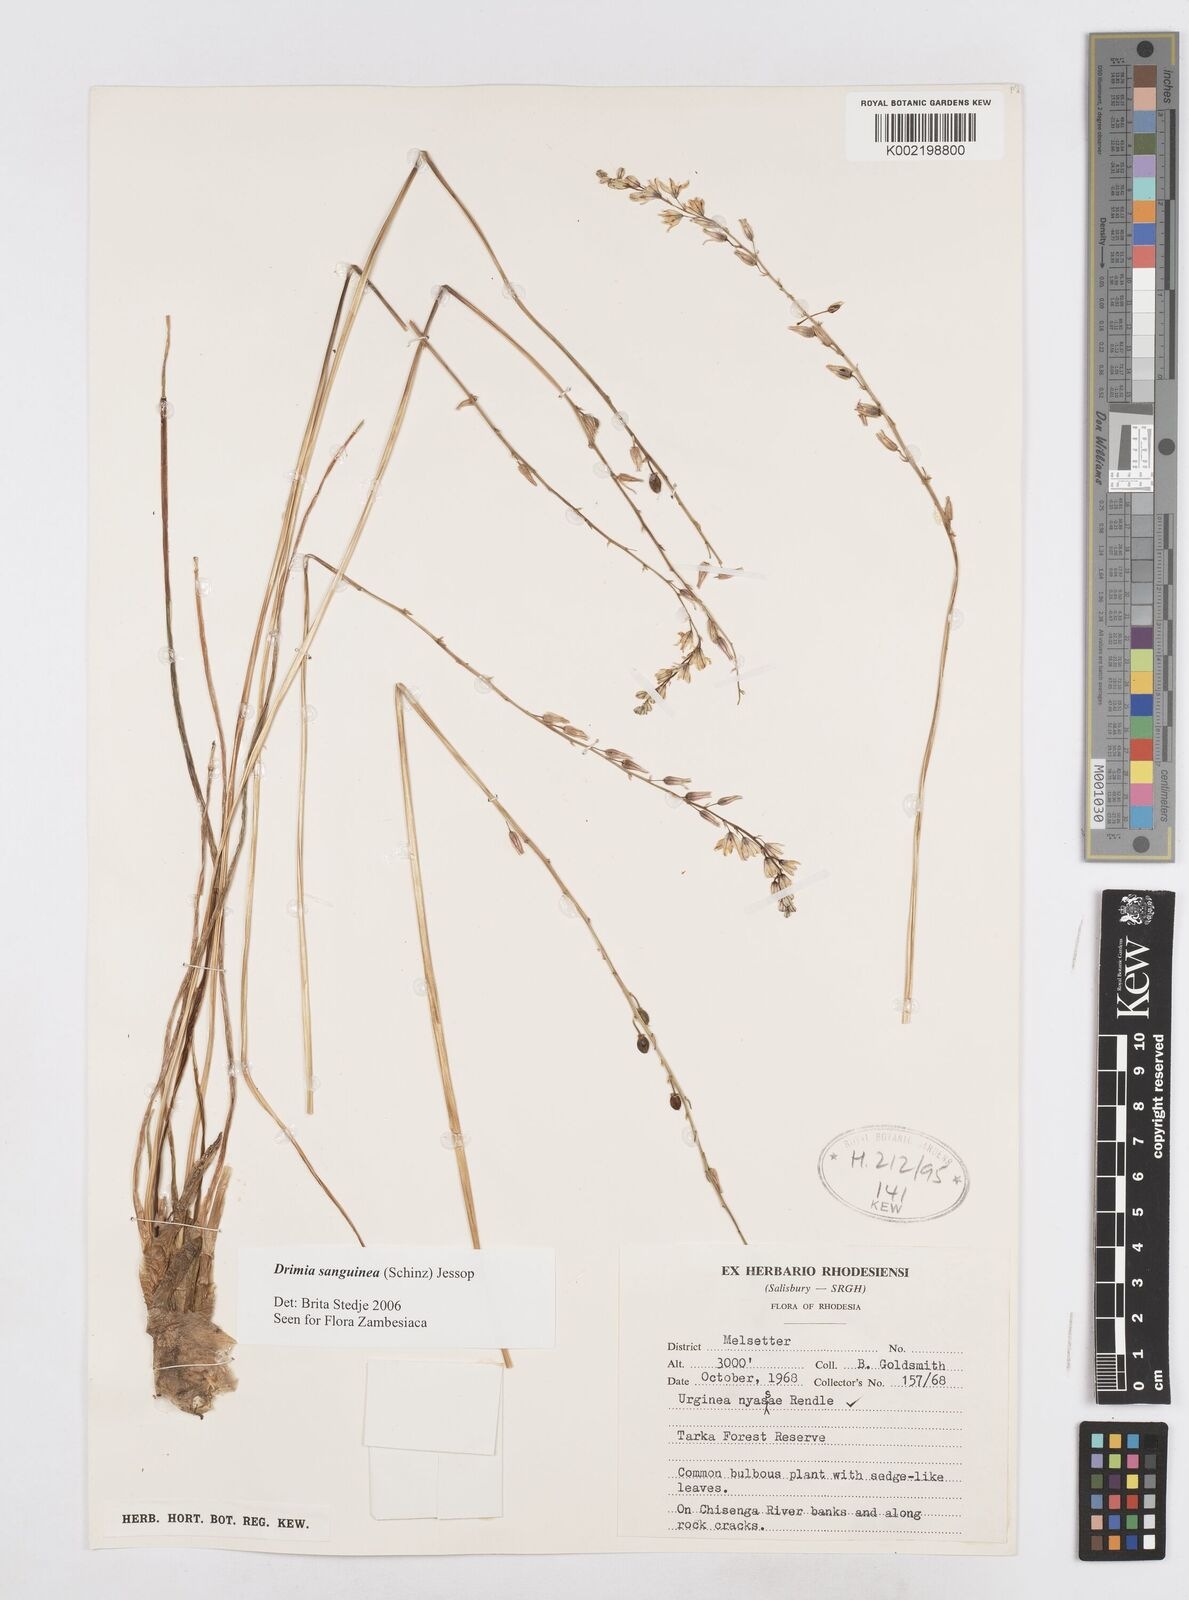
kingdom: Plantae
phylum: Tracheophyta
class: Liliopsida
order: Asparagales
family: Asparagaceae
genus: Drimia
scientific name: Drimia sanguinea
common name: Transvaal slangkop
